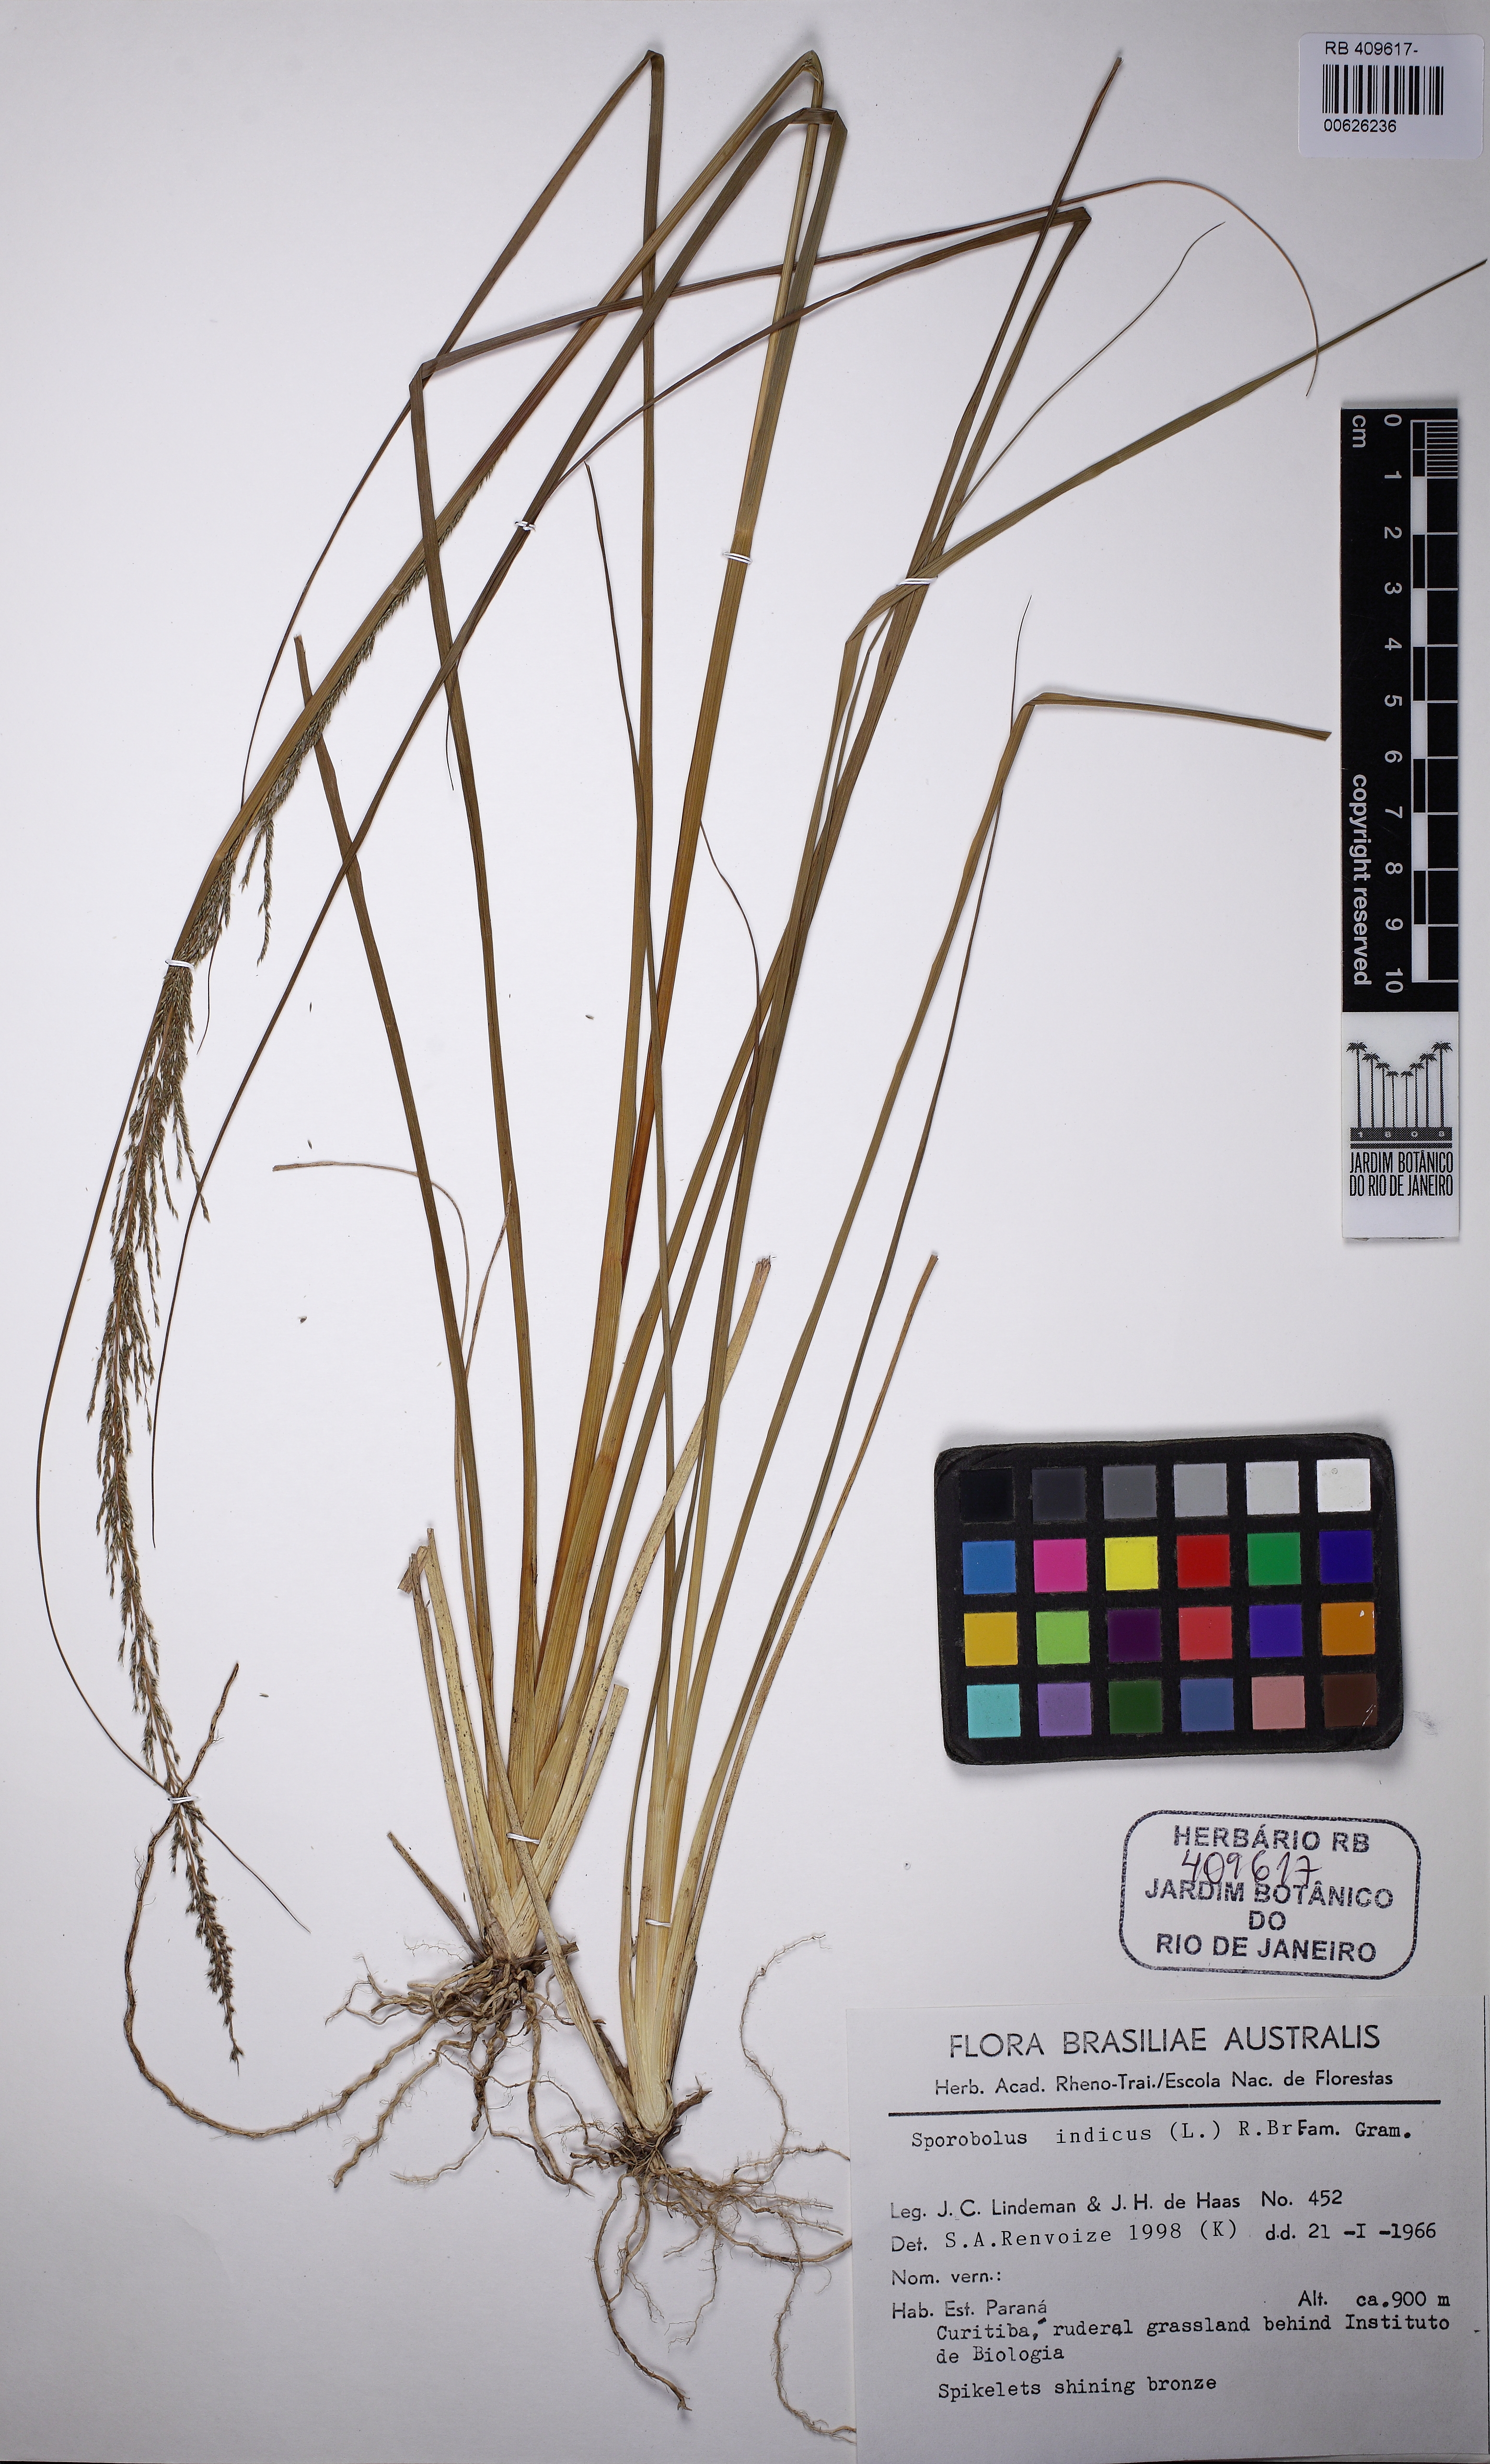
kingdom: Plantae
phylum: Tracheophyta
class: Liliopsida
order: Poales
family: Poaceae
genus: Sporobolus
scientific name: Sporobolus indicus
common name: Smut grass
